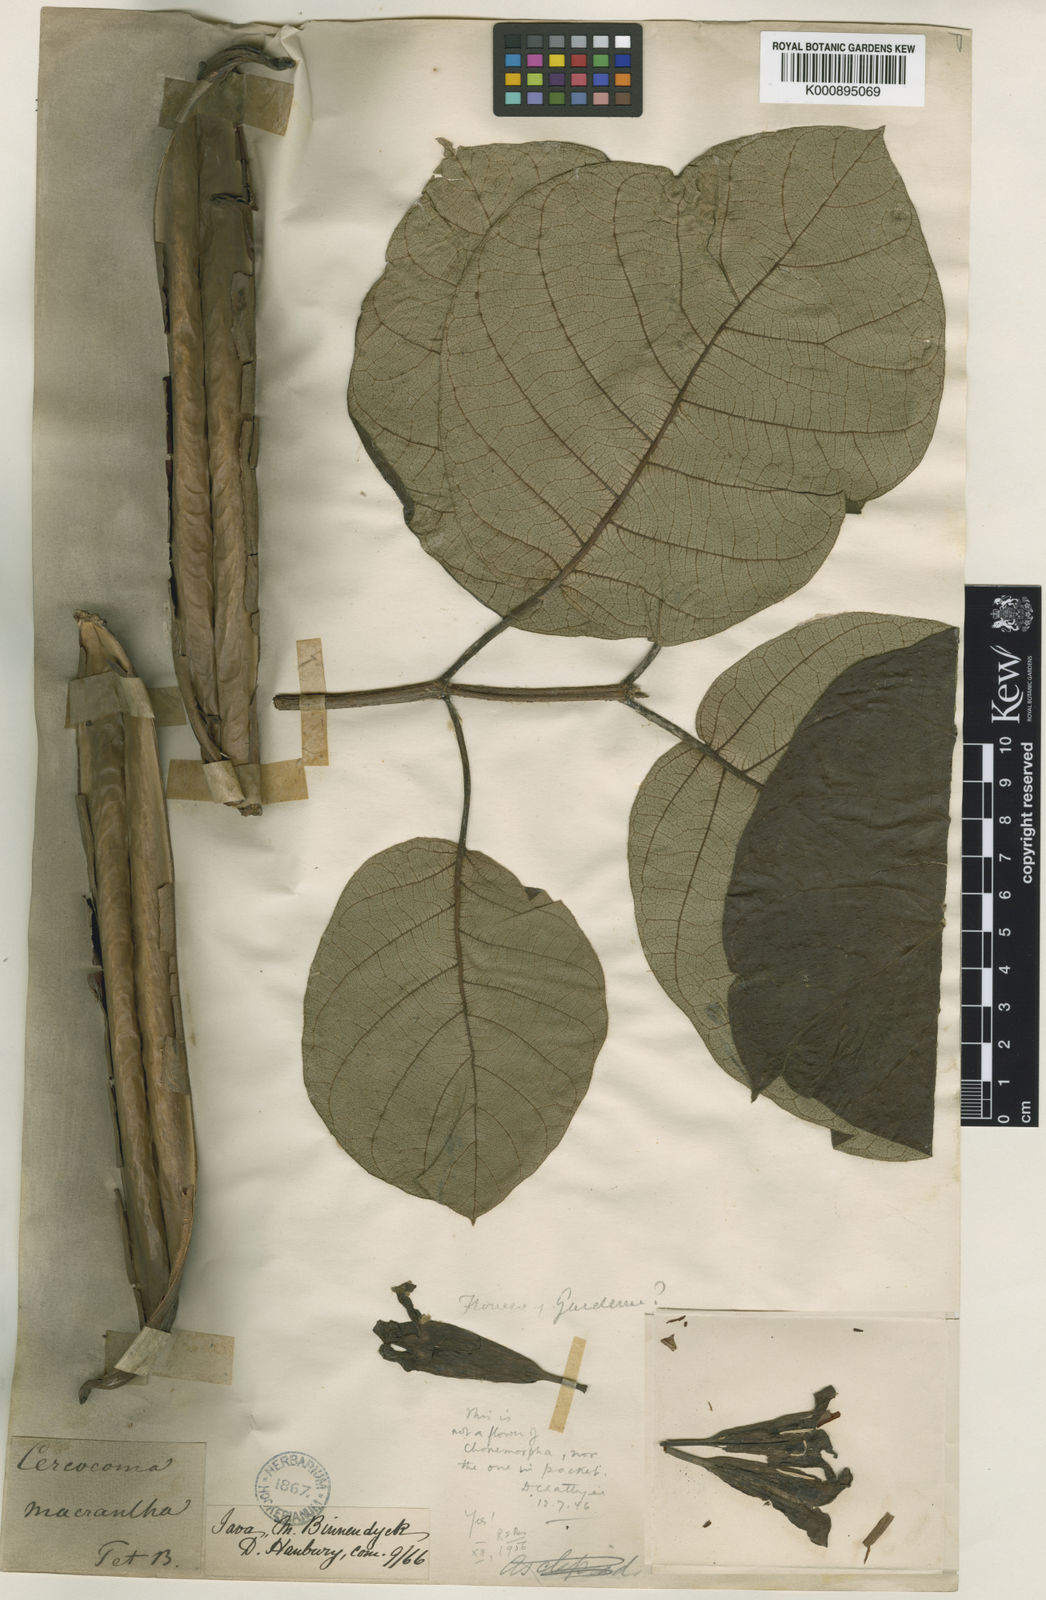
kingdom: Plantae
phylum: Tracheophyta
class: Magnoliopsida
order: Gentianales
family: Apocynaceae
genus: Chonemorpha
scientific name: Chonemorpha fragrans
